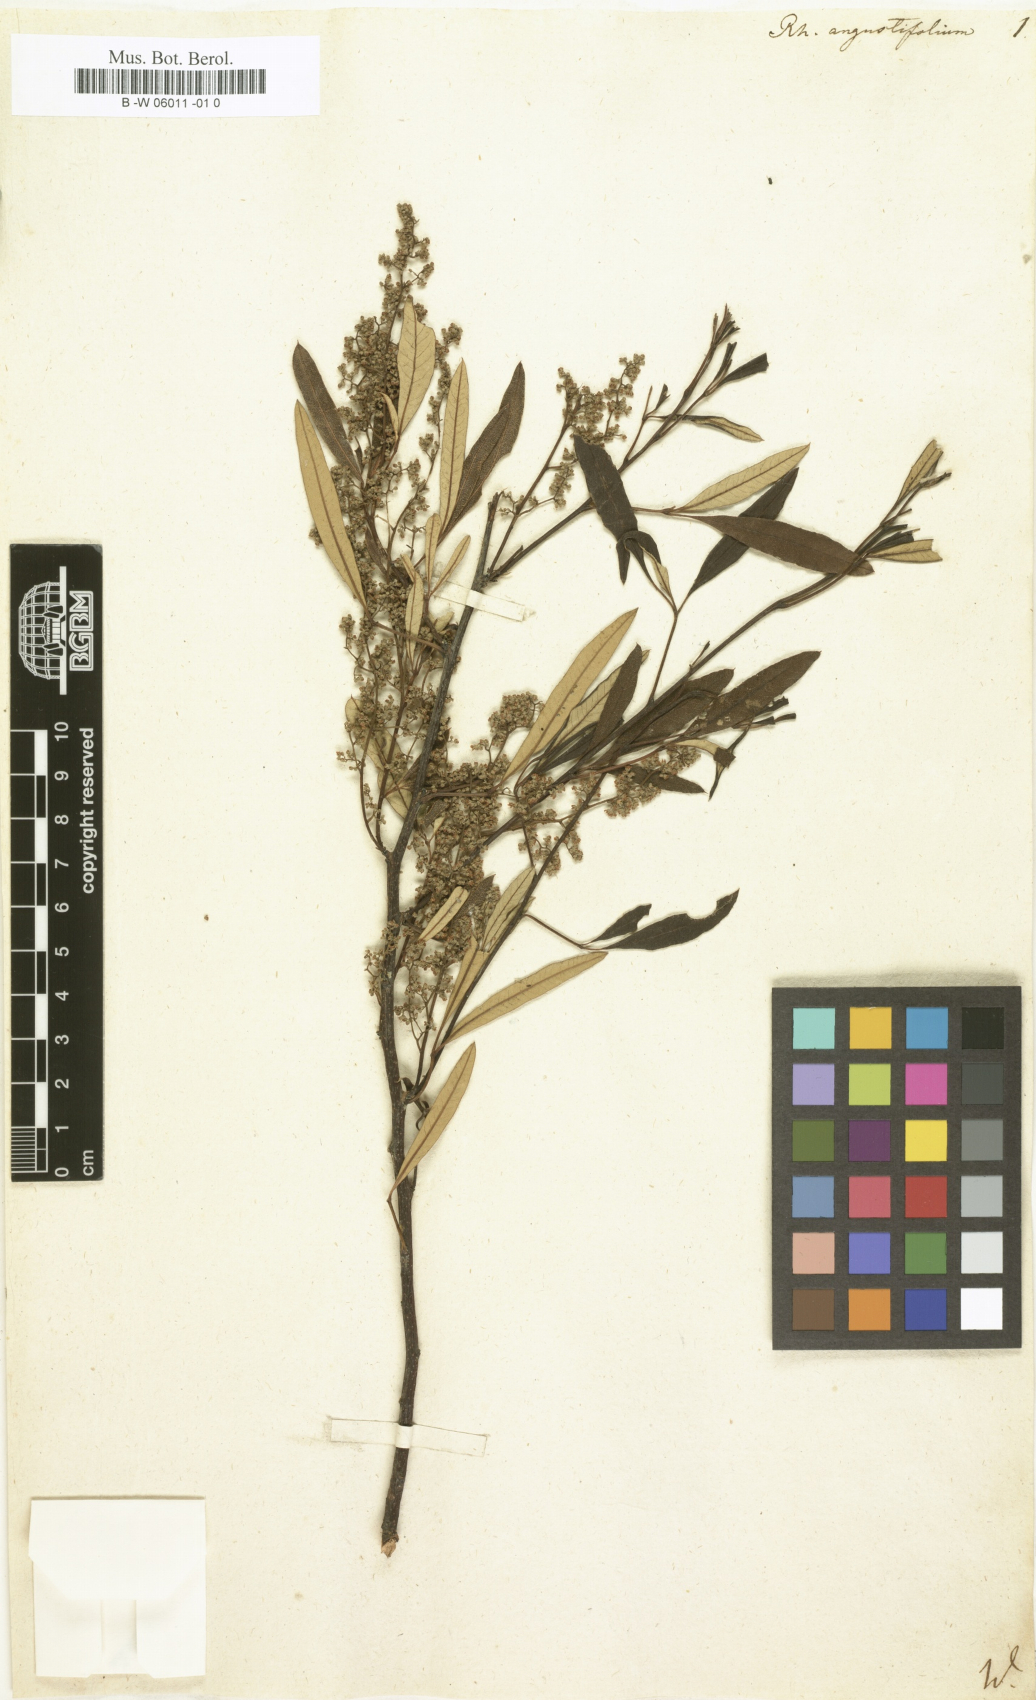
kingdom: Plantae
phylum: Tracheophyta
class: Magnoliopsida
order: Sapindales
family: Anacardiaceae
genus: Searsia
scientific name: Searsia
